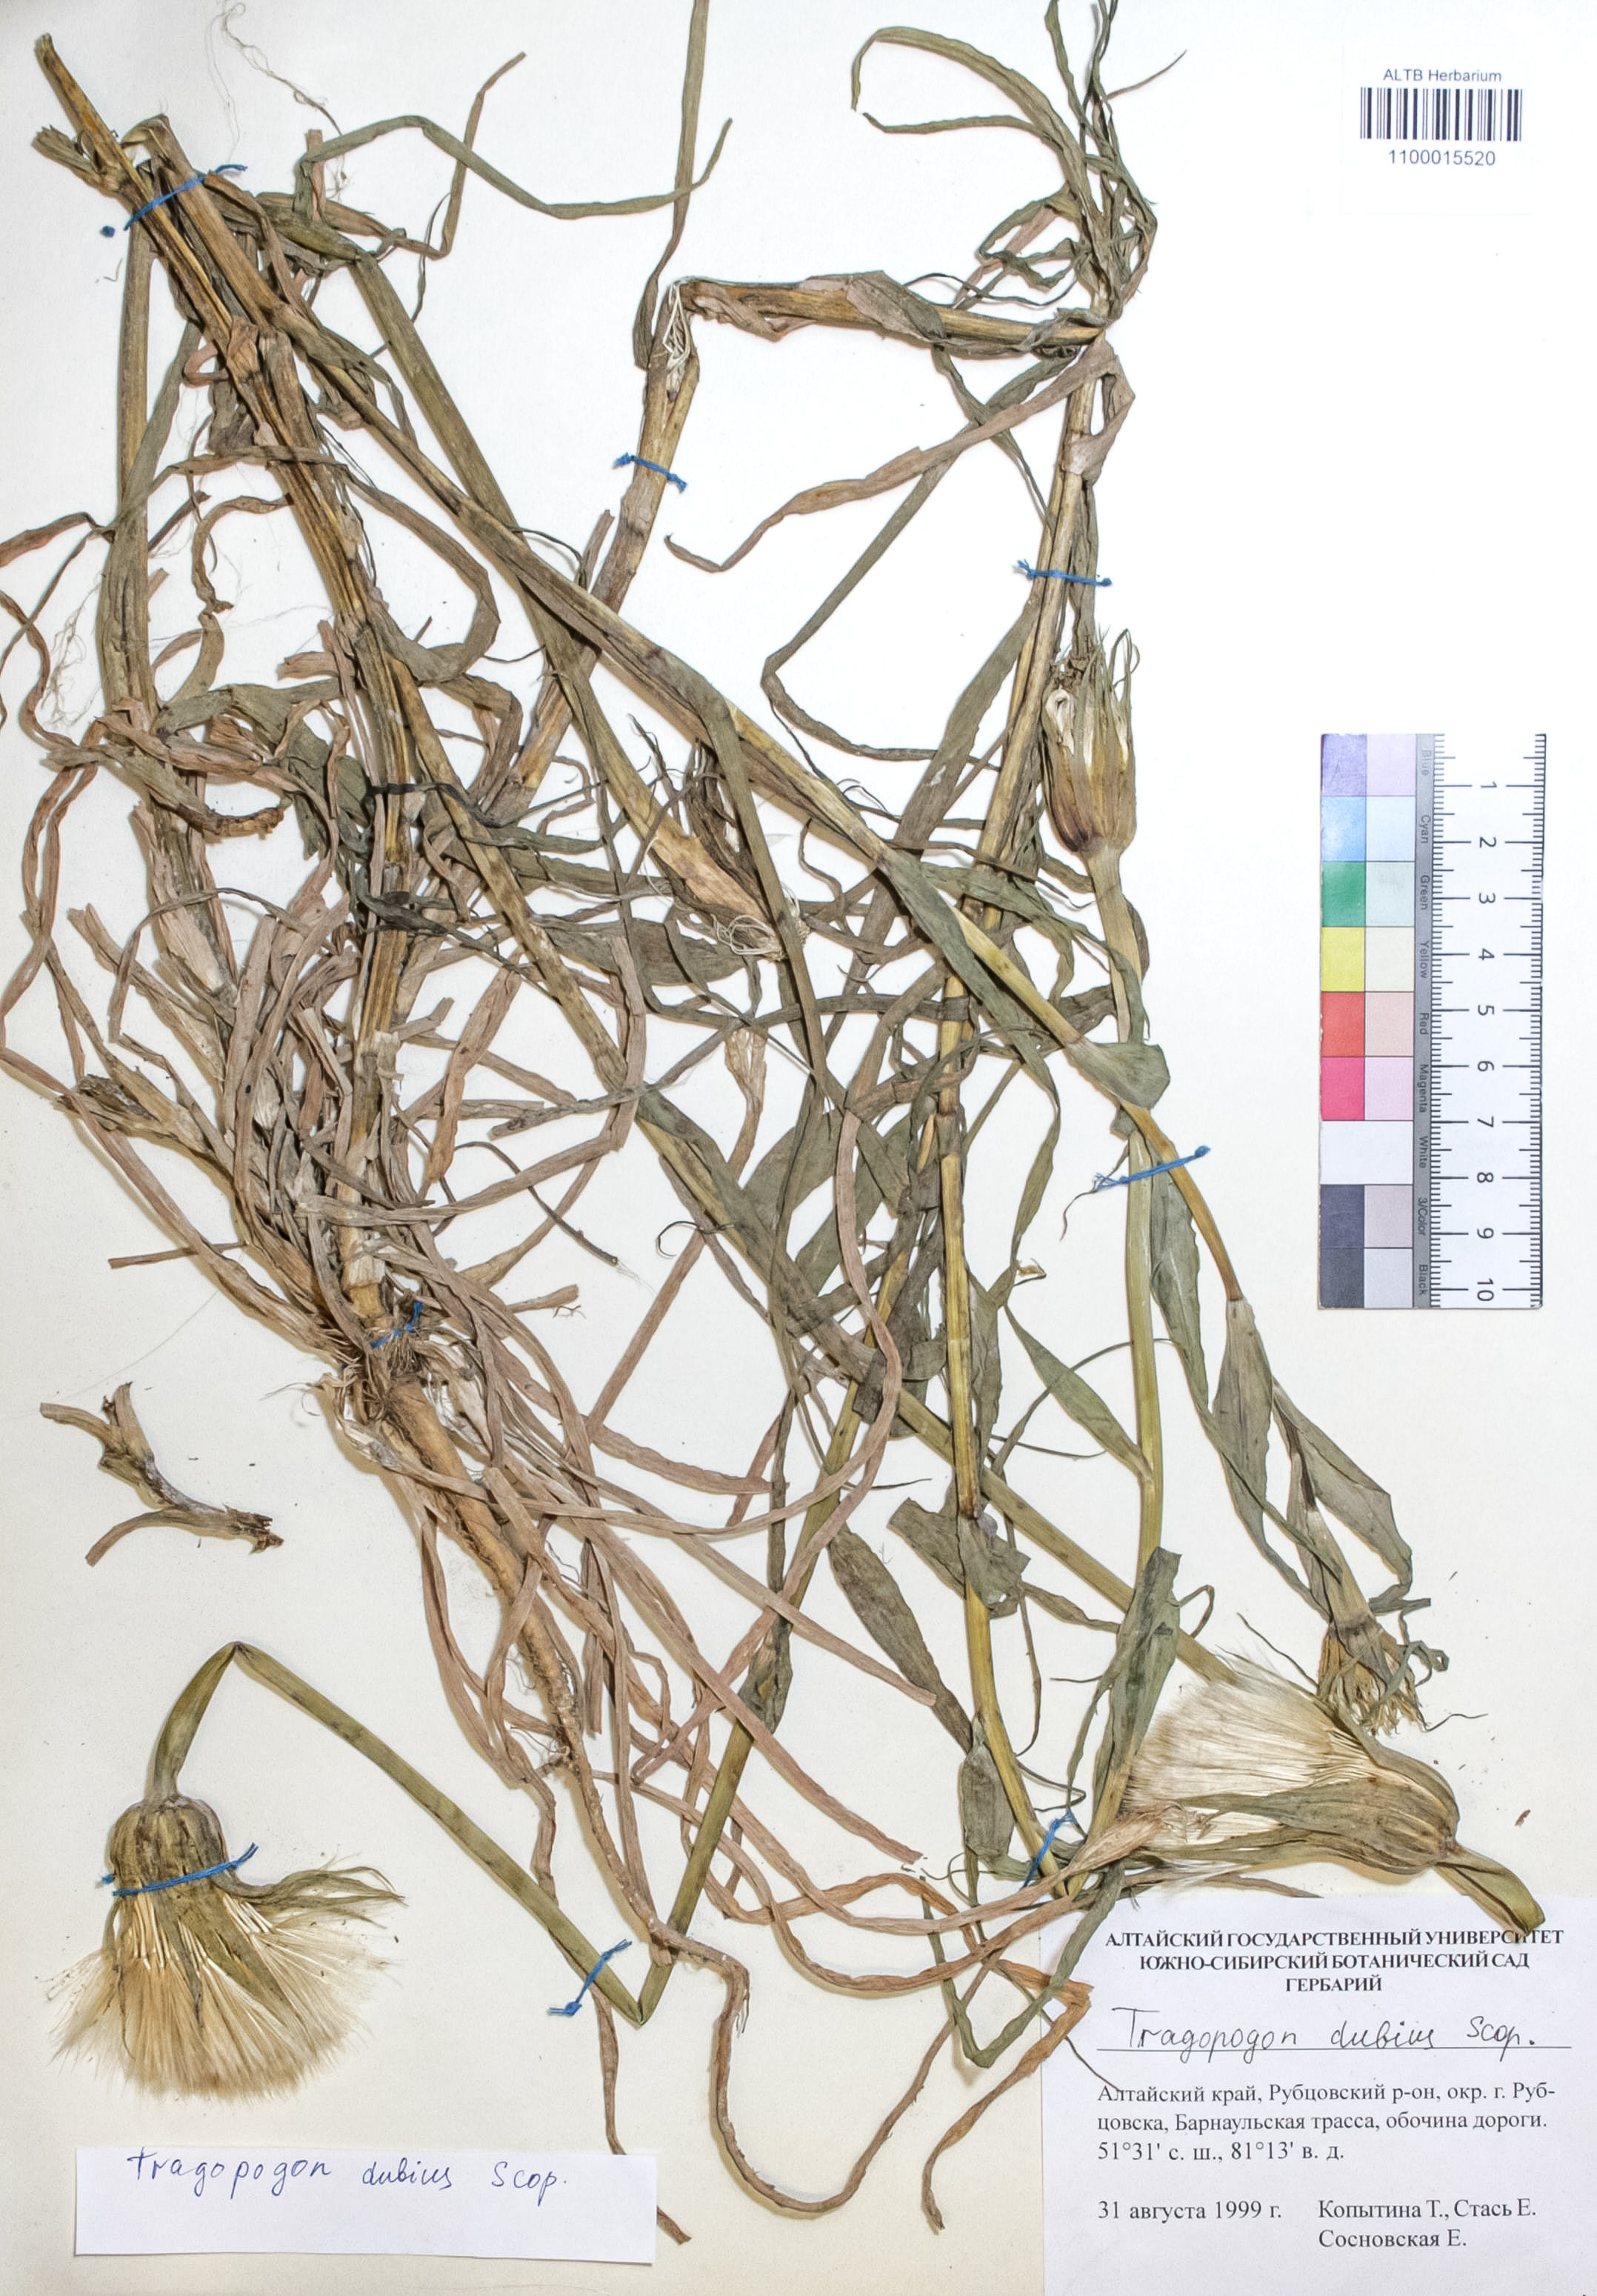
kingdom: Plantae
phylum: Tracheophyta
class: Magnoliopsida
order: Asterales
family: Asteraceae
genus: Tragopogon
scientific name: Tragopogon dubius
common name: Yellow salsify
